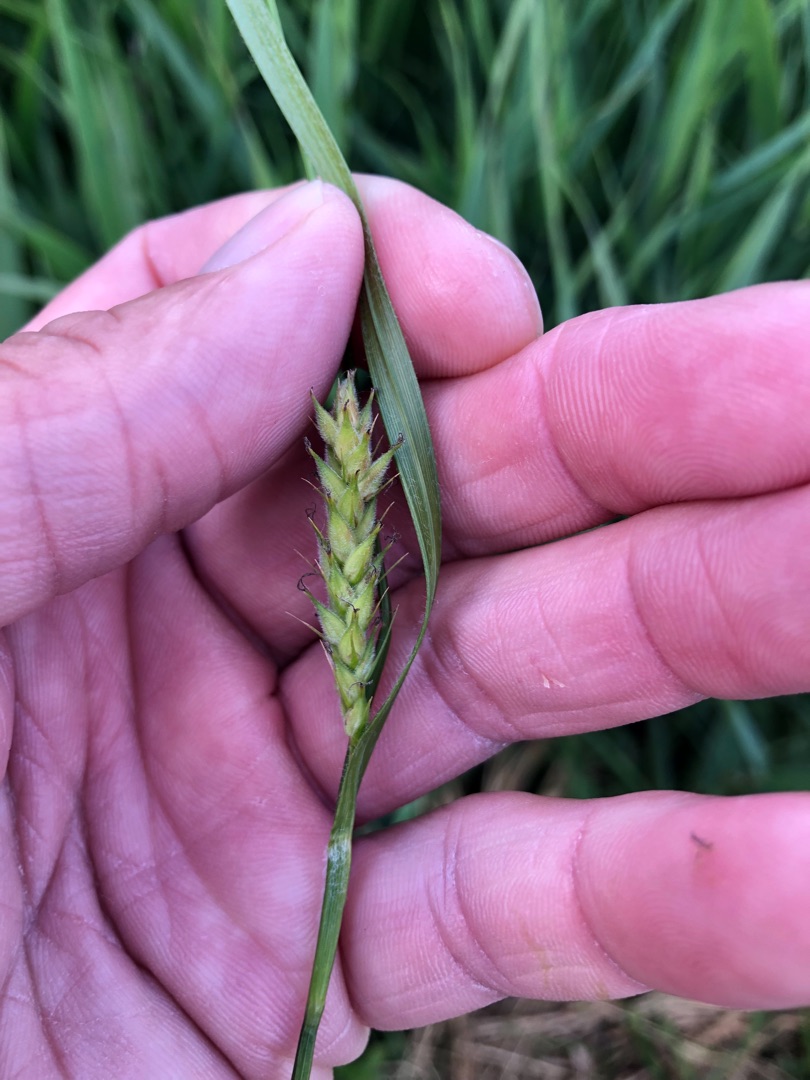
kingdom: Plantae
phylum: Tracheophyta
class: Liliopsida
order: Poales
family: Cyperaceae
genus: Carex
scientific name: Carex hirta
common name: Håret star
